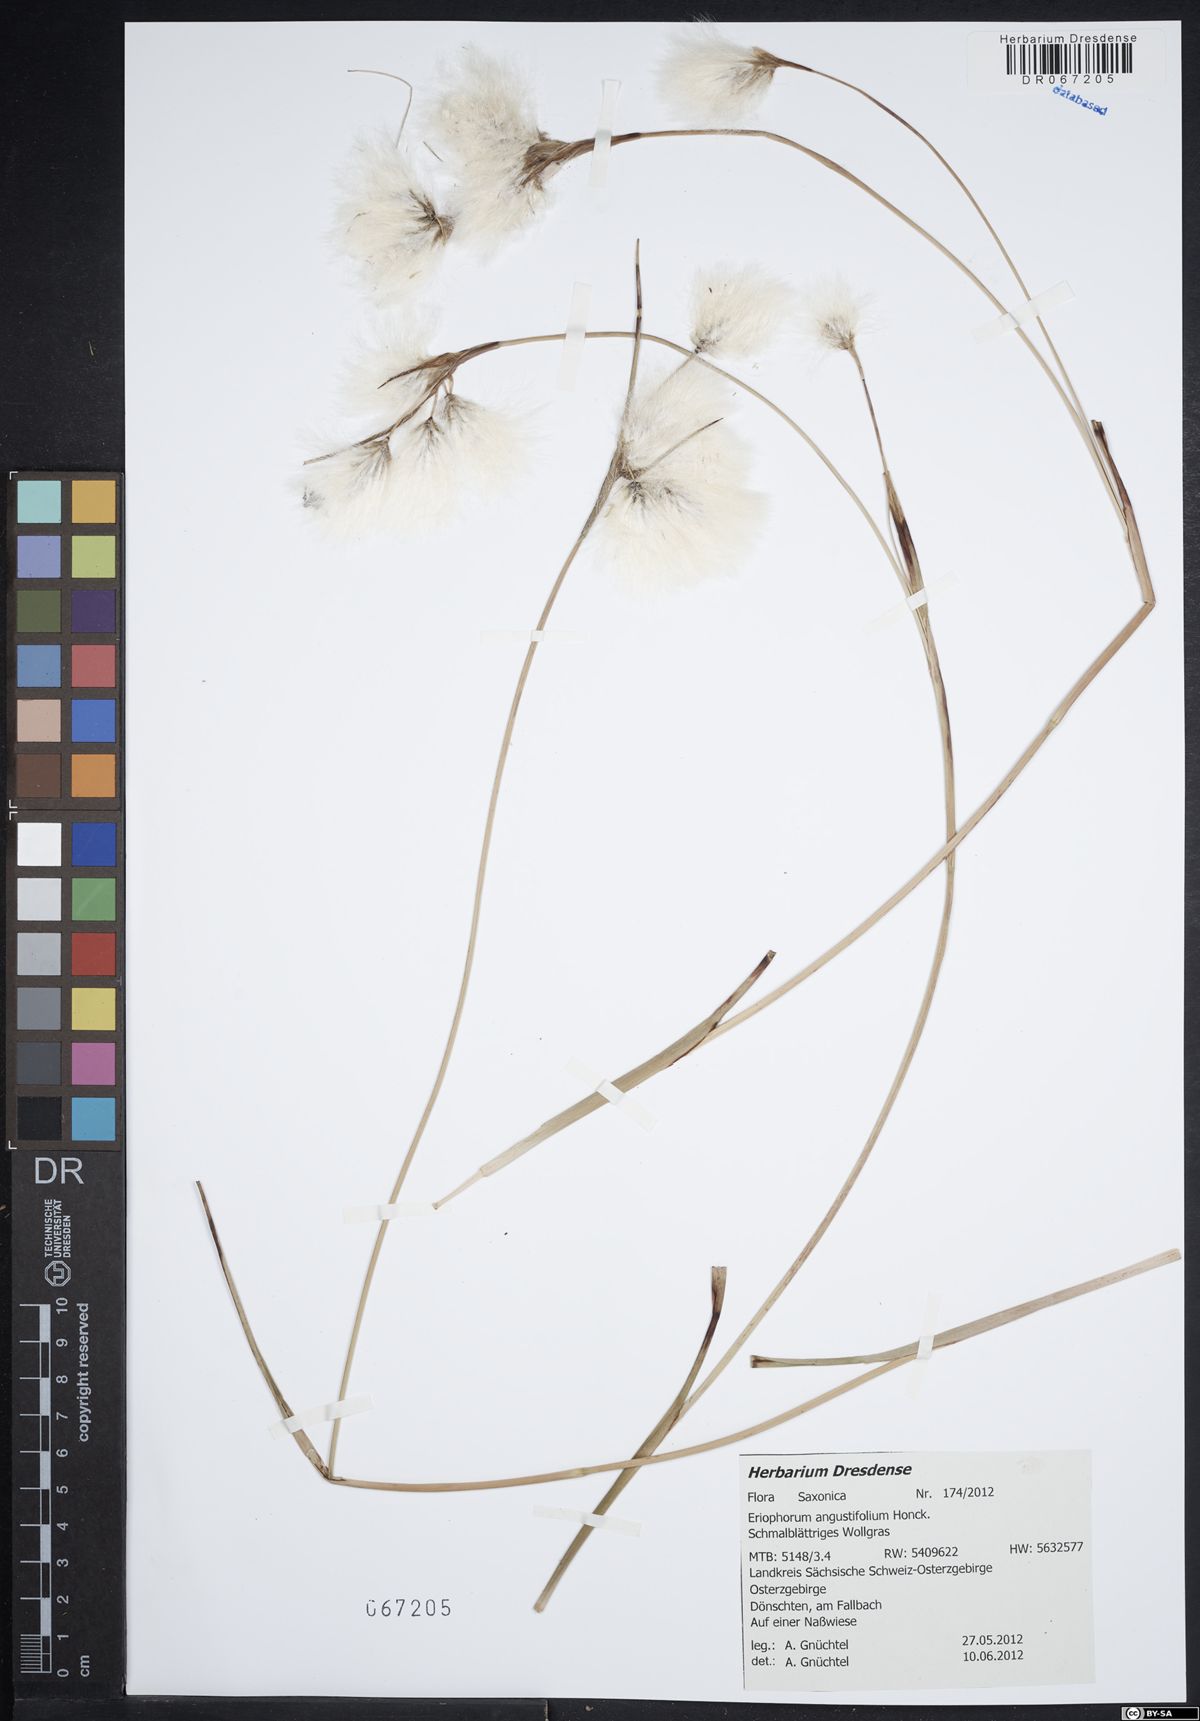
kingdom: Plantae
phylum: Tracheophyta
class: Liliopsida
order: Poales
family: Cyperaceae
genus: Eriophorum
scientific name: Eriophorum angustifolium
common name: Common cottongrass
